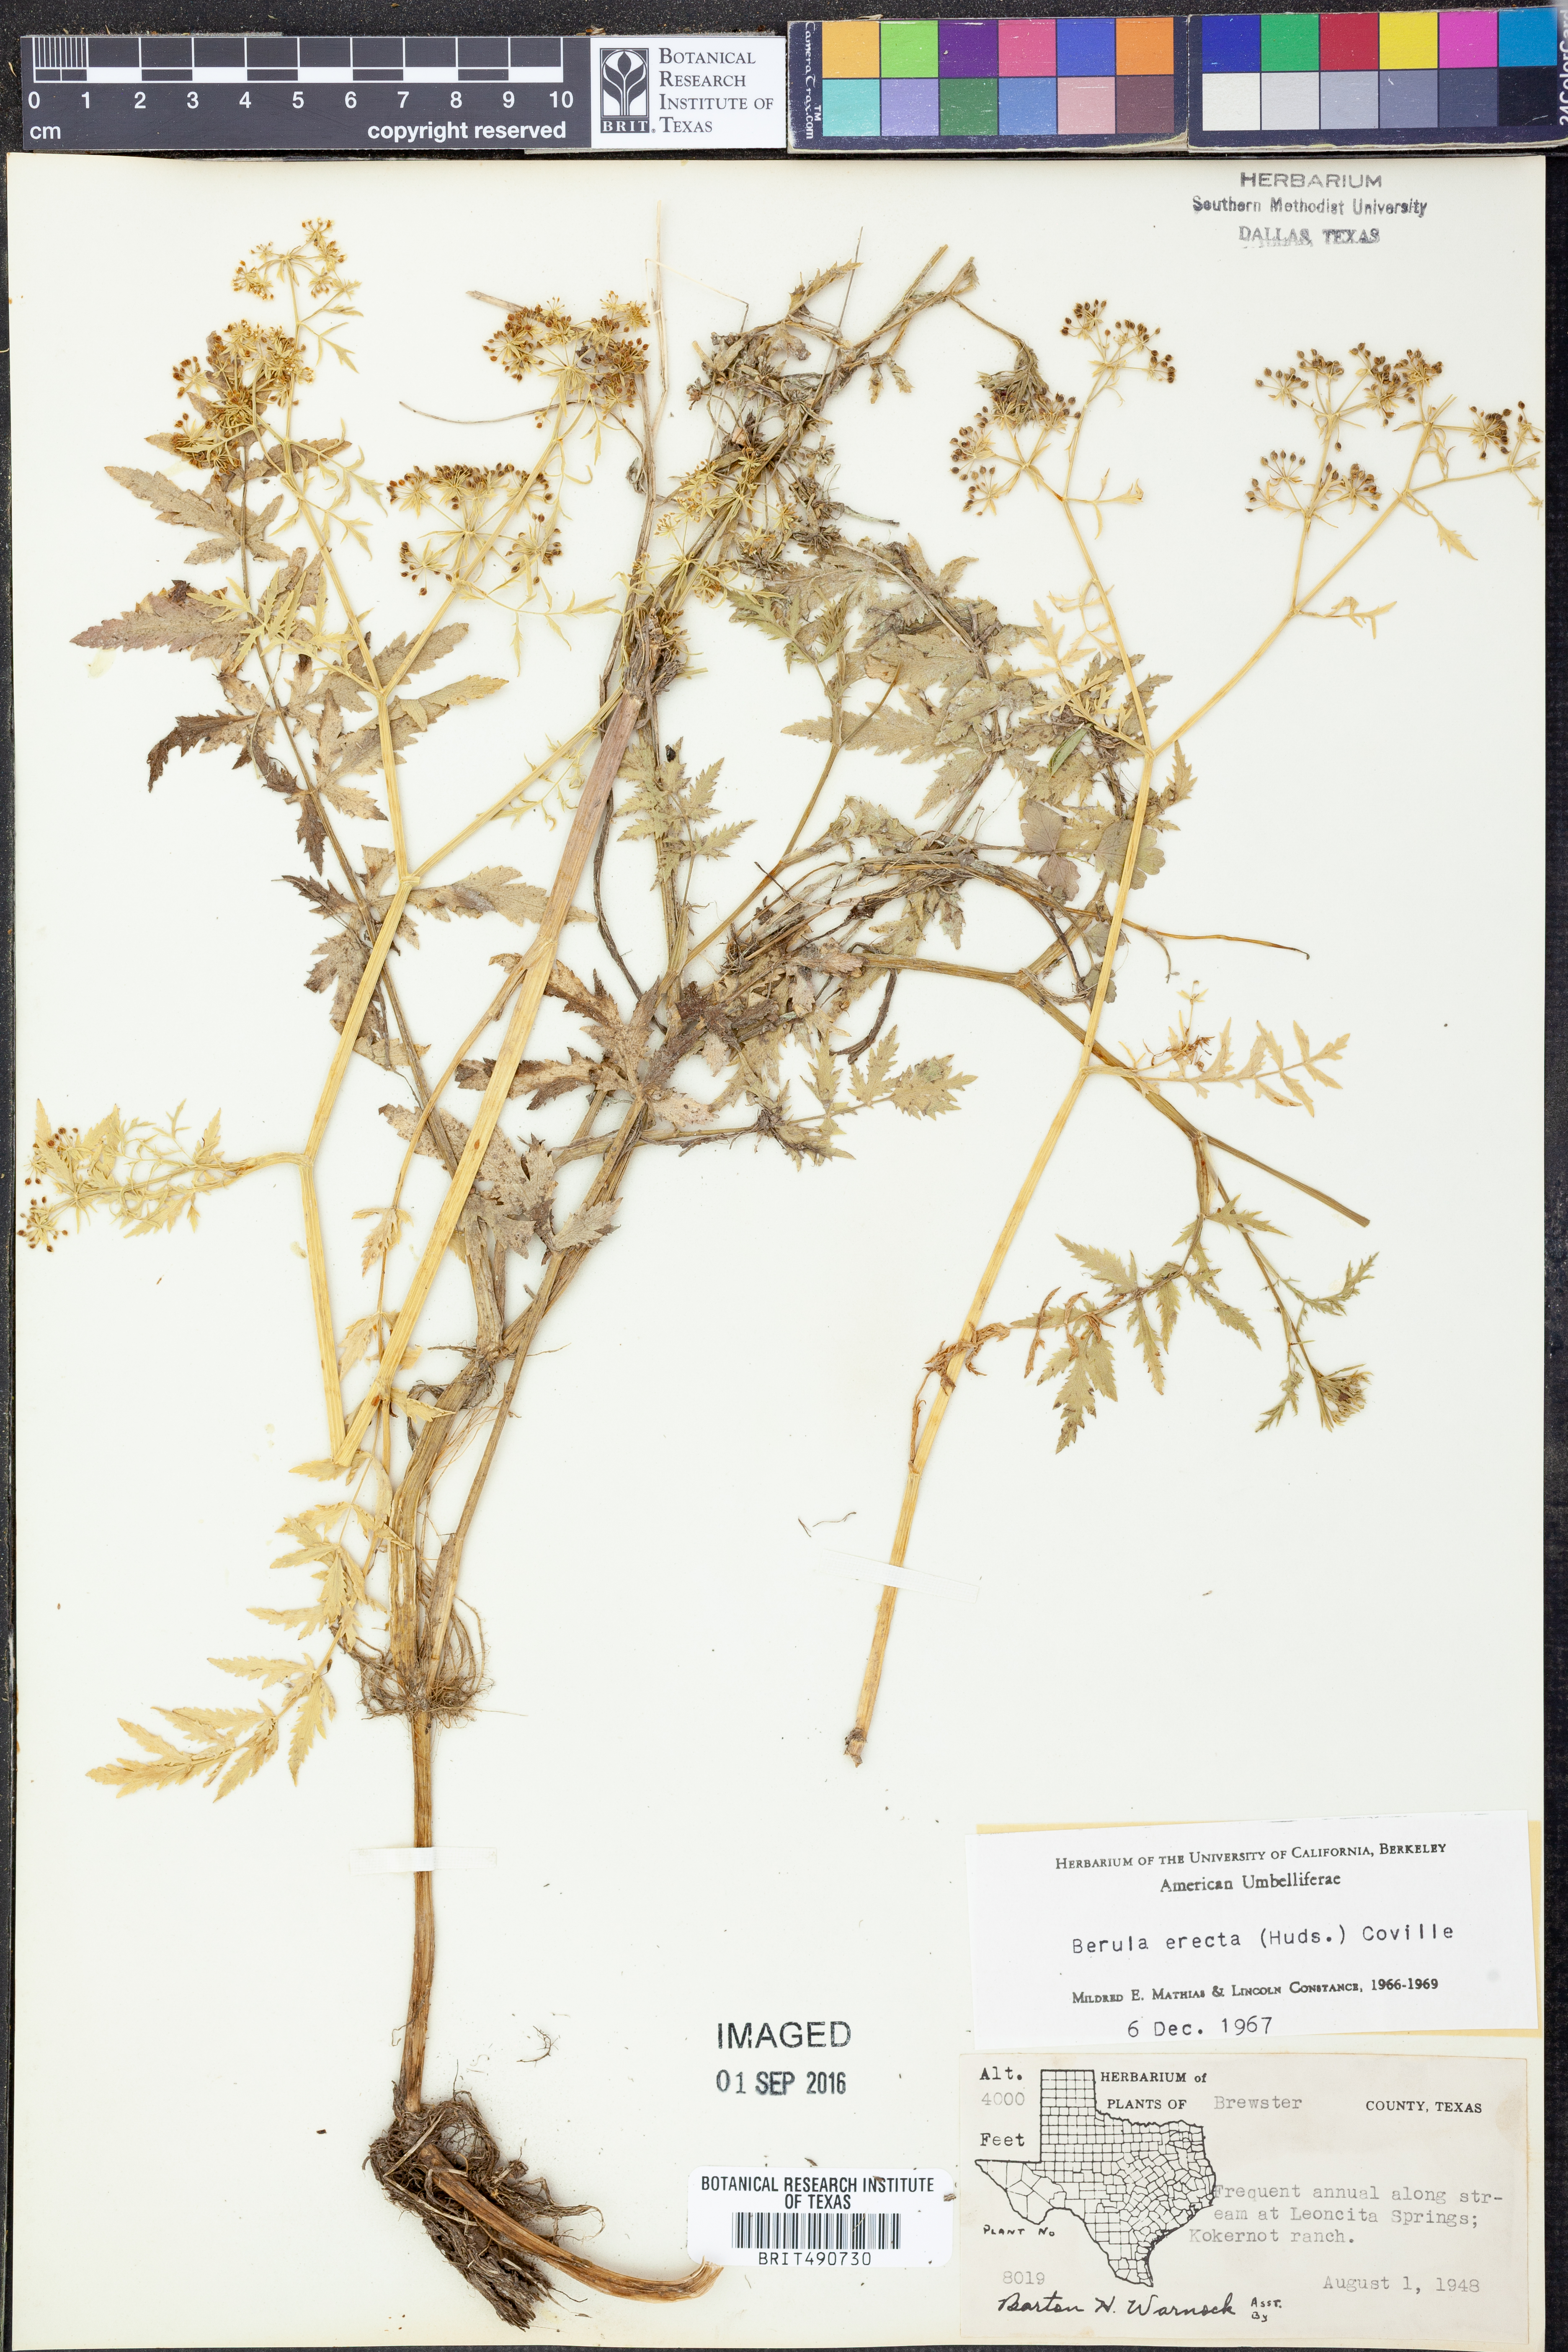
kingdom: Plantae
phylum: Tracheophyta
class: Magnoliopsida
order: Apiales
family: Apiaceae
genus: Berula
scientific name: Berula erecta
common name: Lesser water-parsnip
